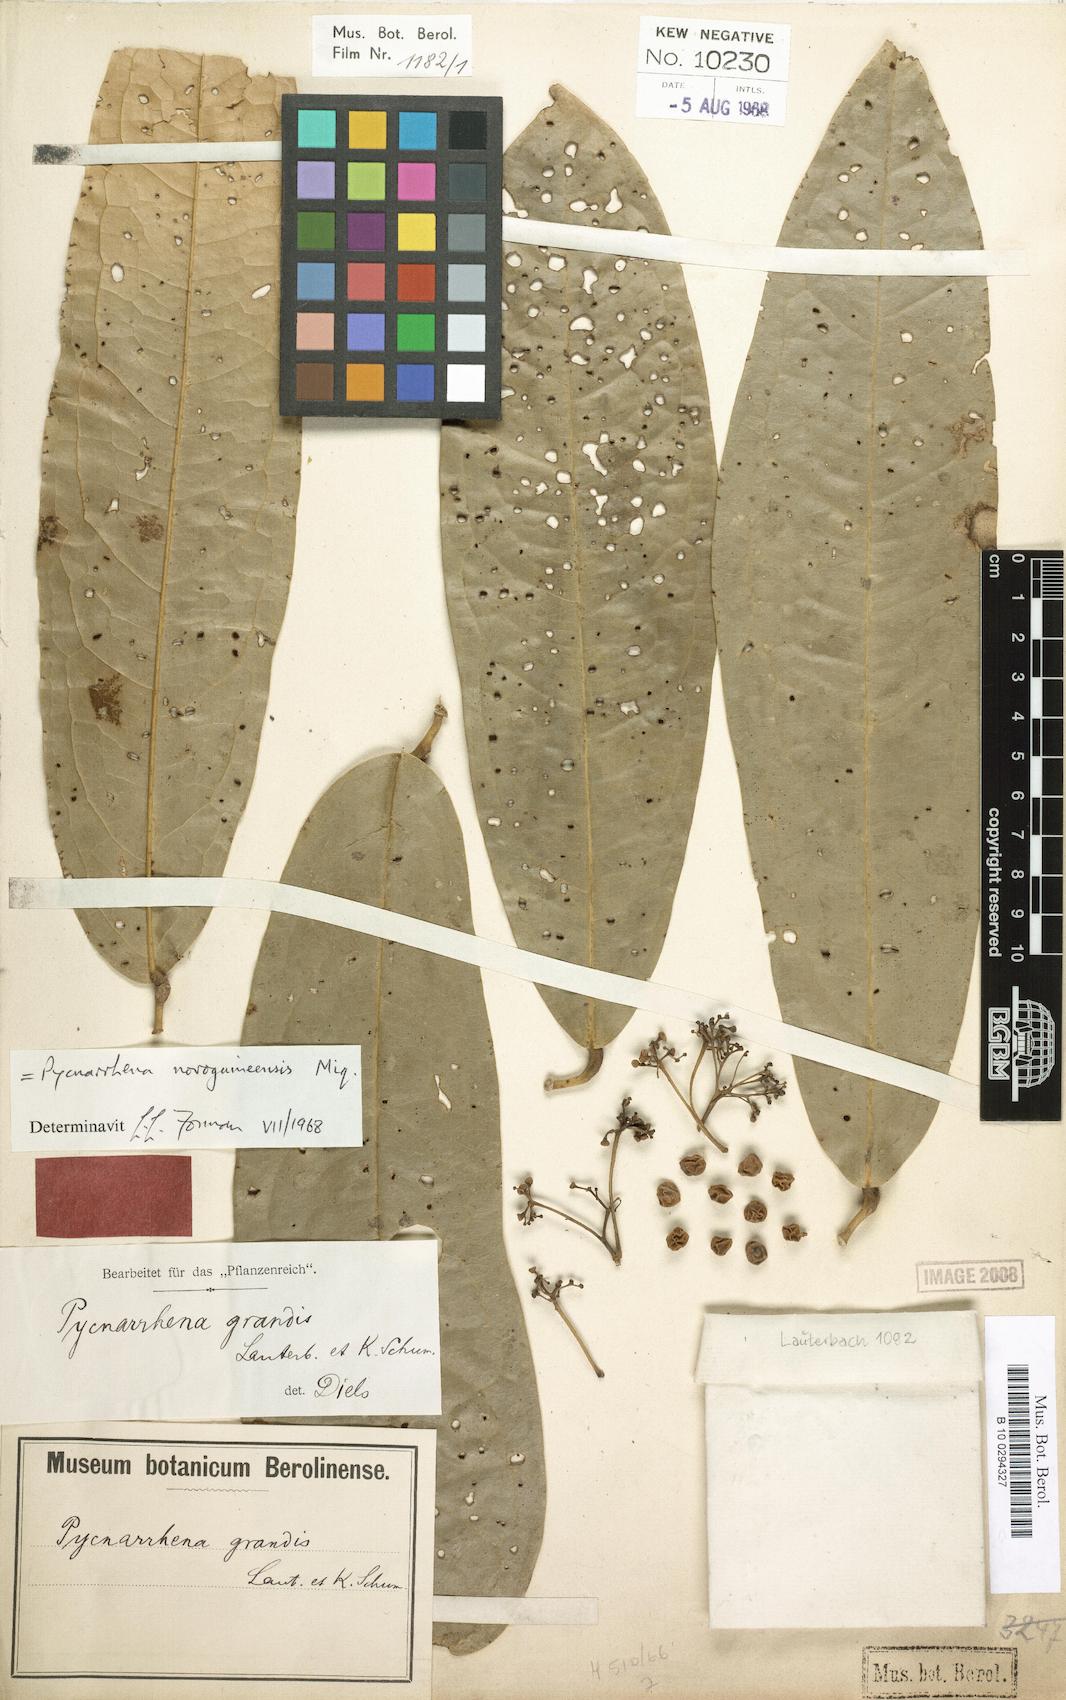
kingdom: Plantae
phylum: Tracheophyta
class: Magnoliopsida
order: Ranunculales
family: Menispermaceae
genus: Pycnarrhena
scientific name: Pycnarrhena novoguineensis
